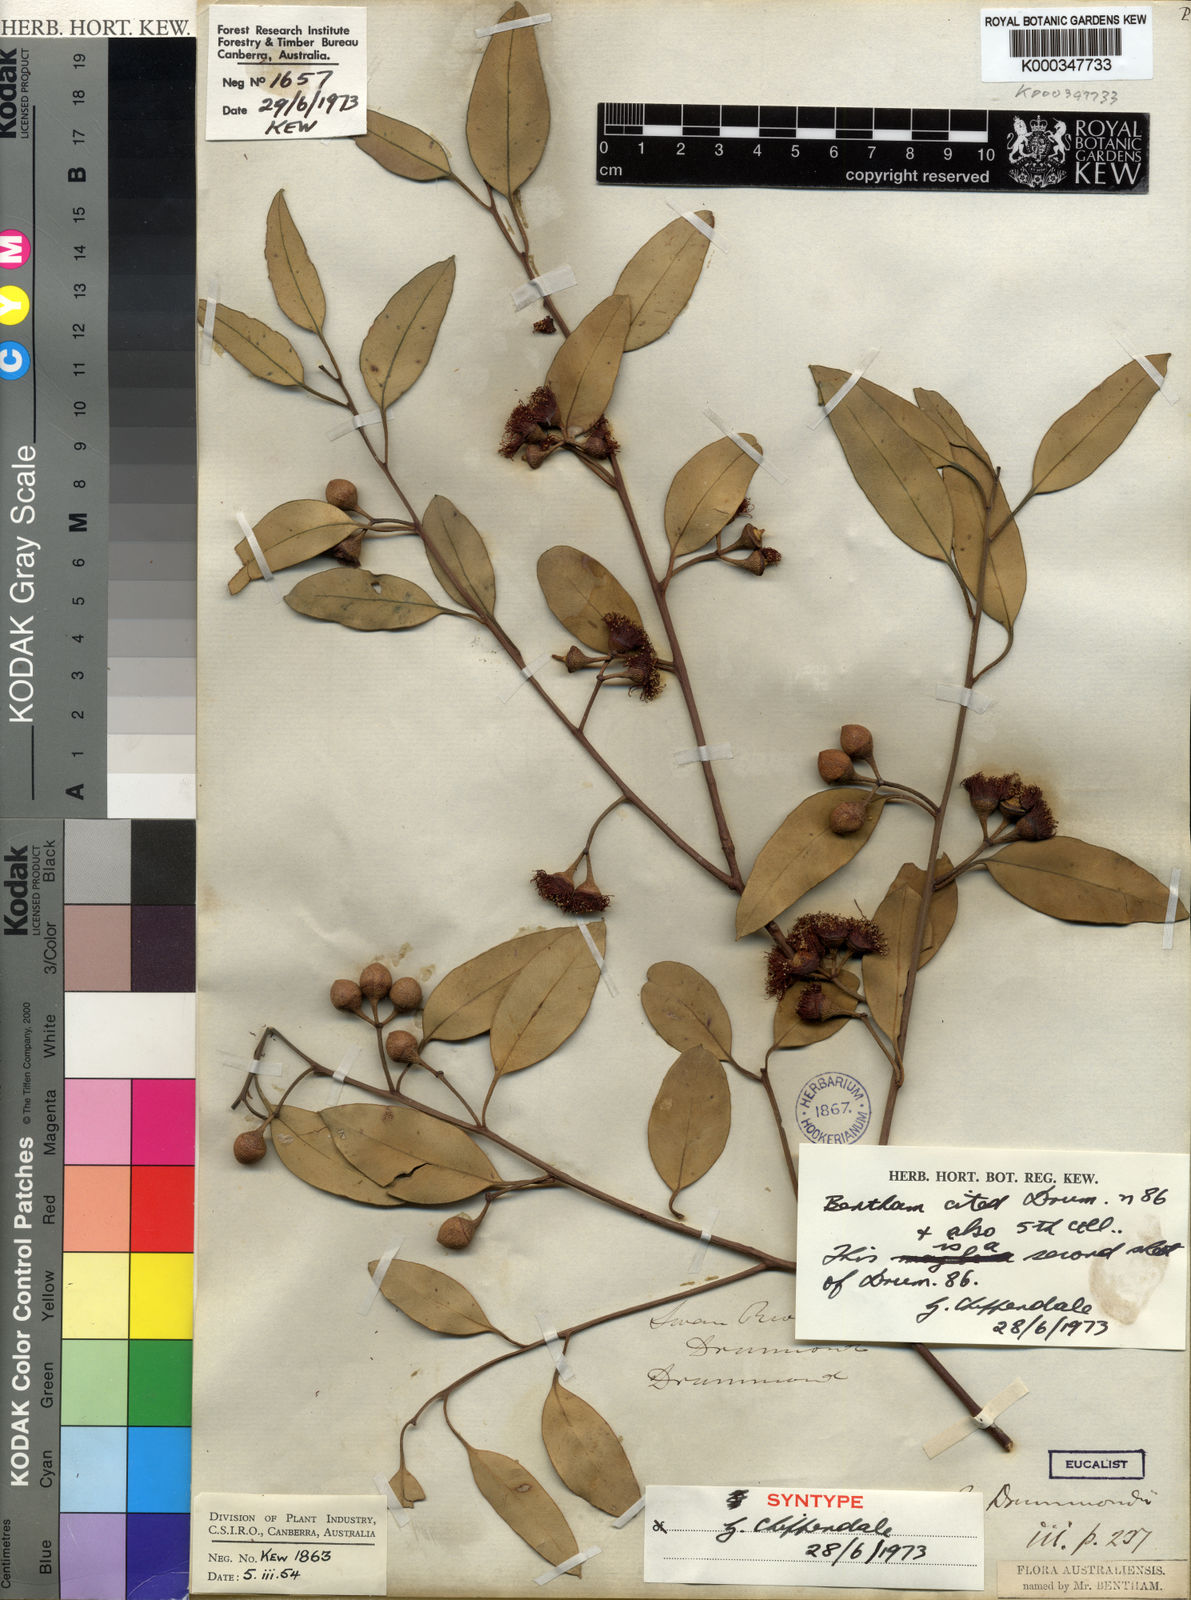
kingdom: Plantae
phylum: Tracheophyta
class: Magnoliopsida
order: Myrtales
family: Myrtaceae
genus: Eucalyptus
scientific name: Eucalyptus drummondii
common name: Drummond's mallee
